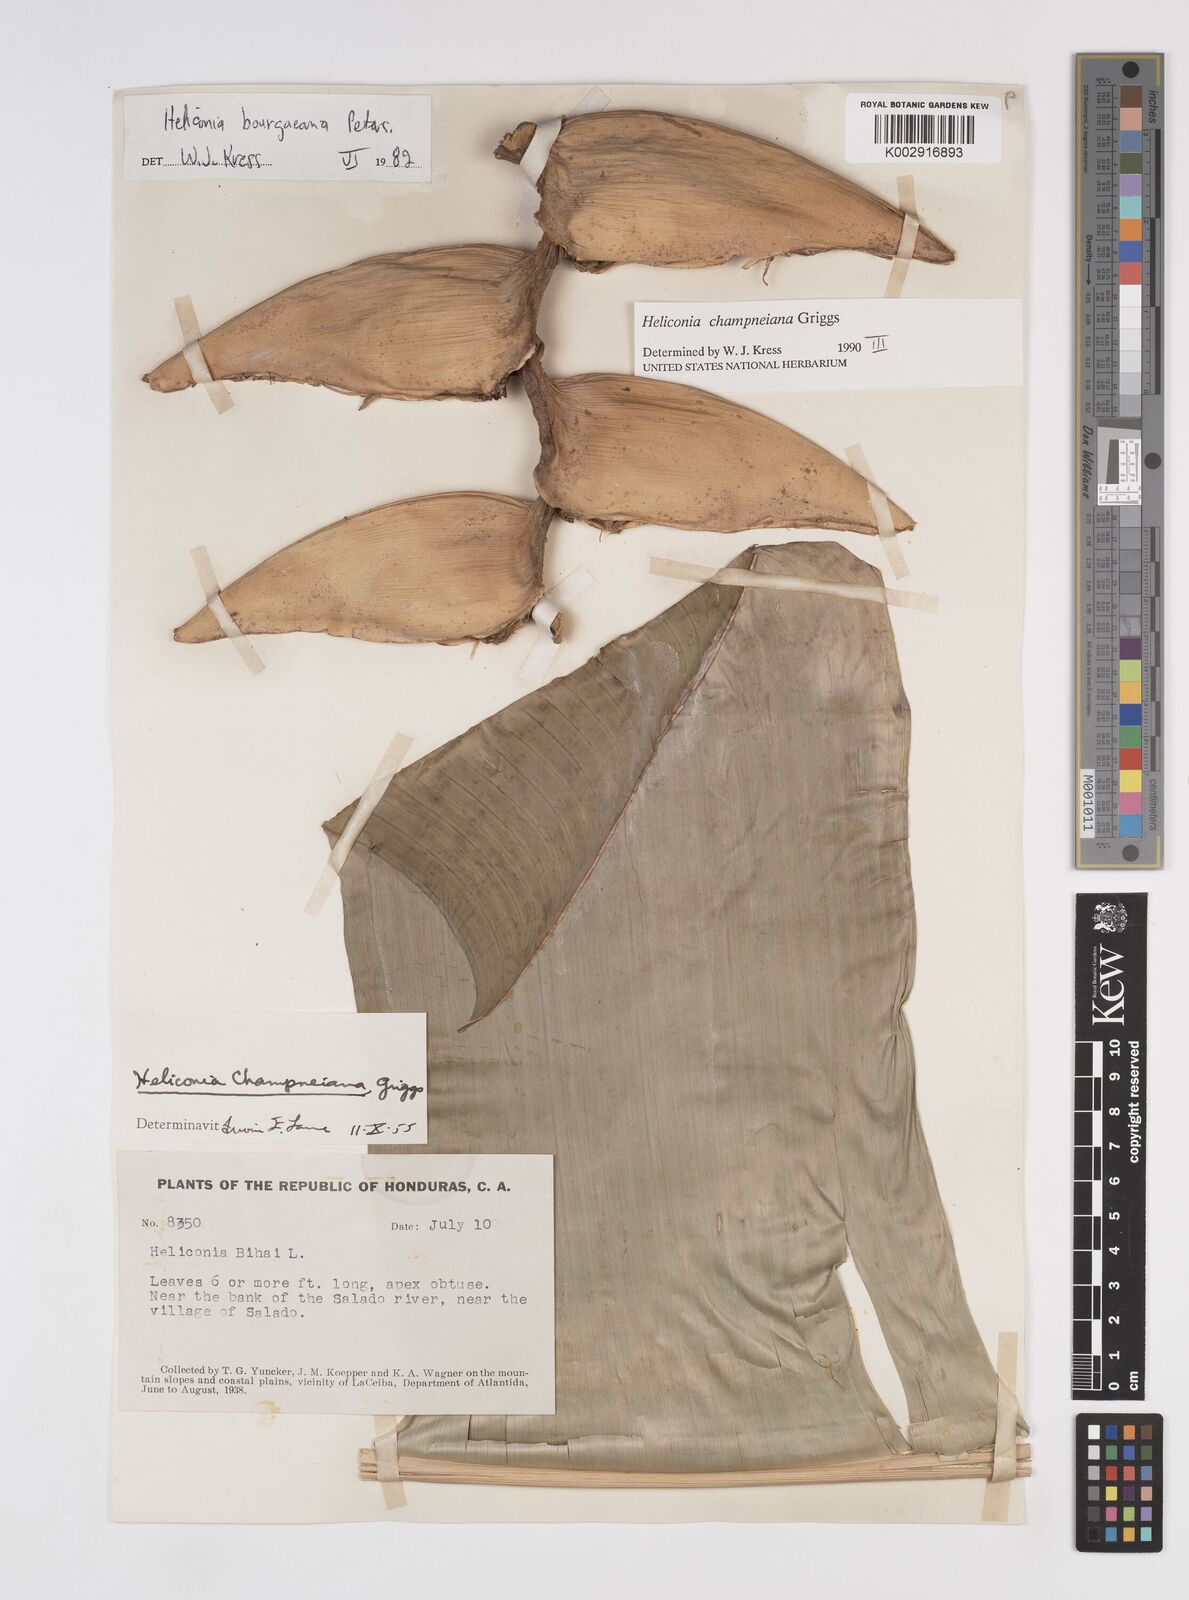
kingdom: Plantae
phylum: Tracheophyta
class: Liliopsida
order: Zingiberales
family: Heliconiaceae
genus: Heliconia
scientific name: Heliconia bourgaeana
